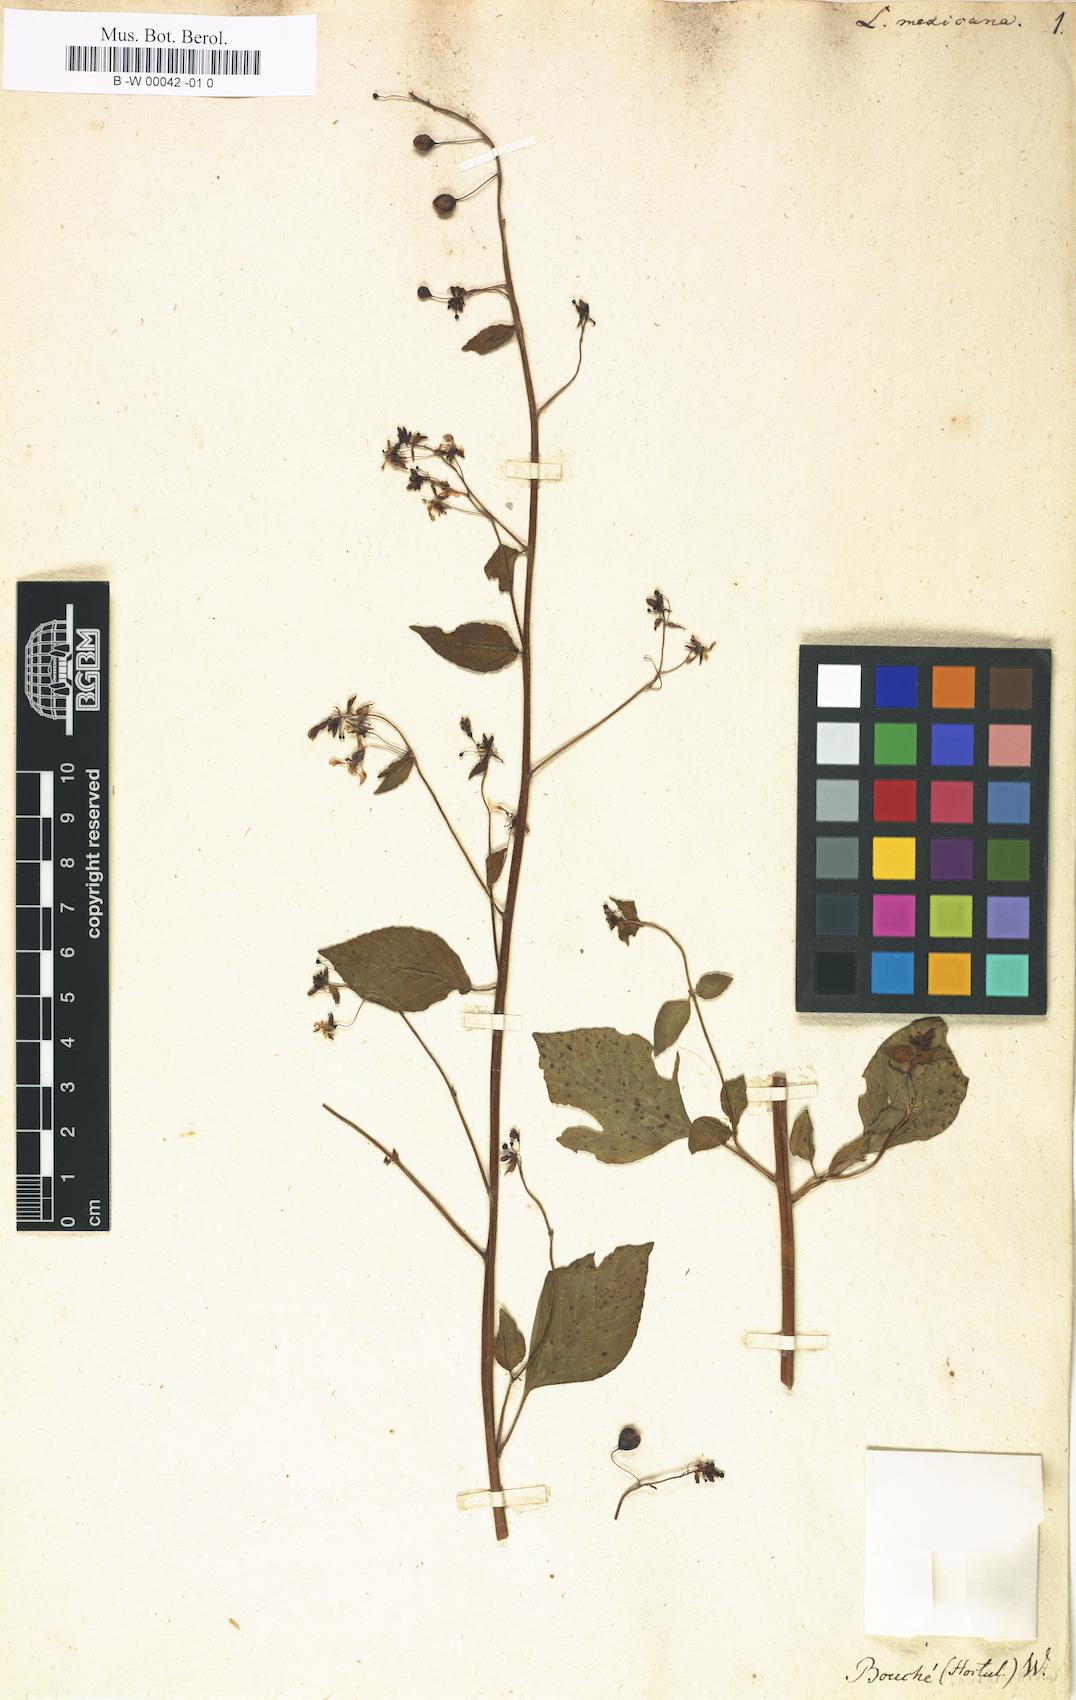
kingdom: Plantae
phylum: Tracheophyta
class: Magnoliopsida
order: Myrtales
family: Onagraceae
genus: Lopezia
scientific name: Lopezia racemosa
